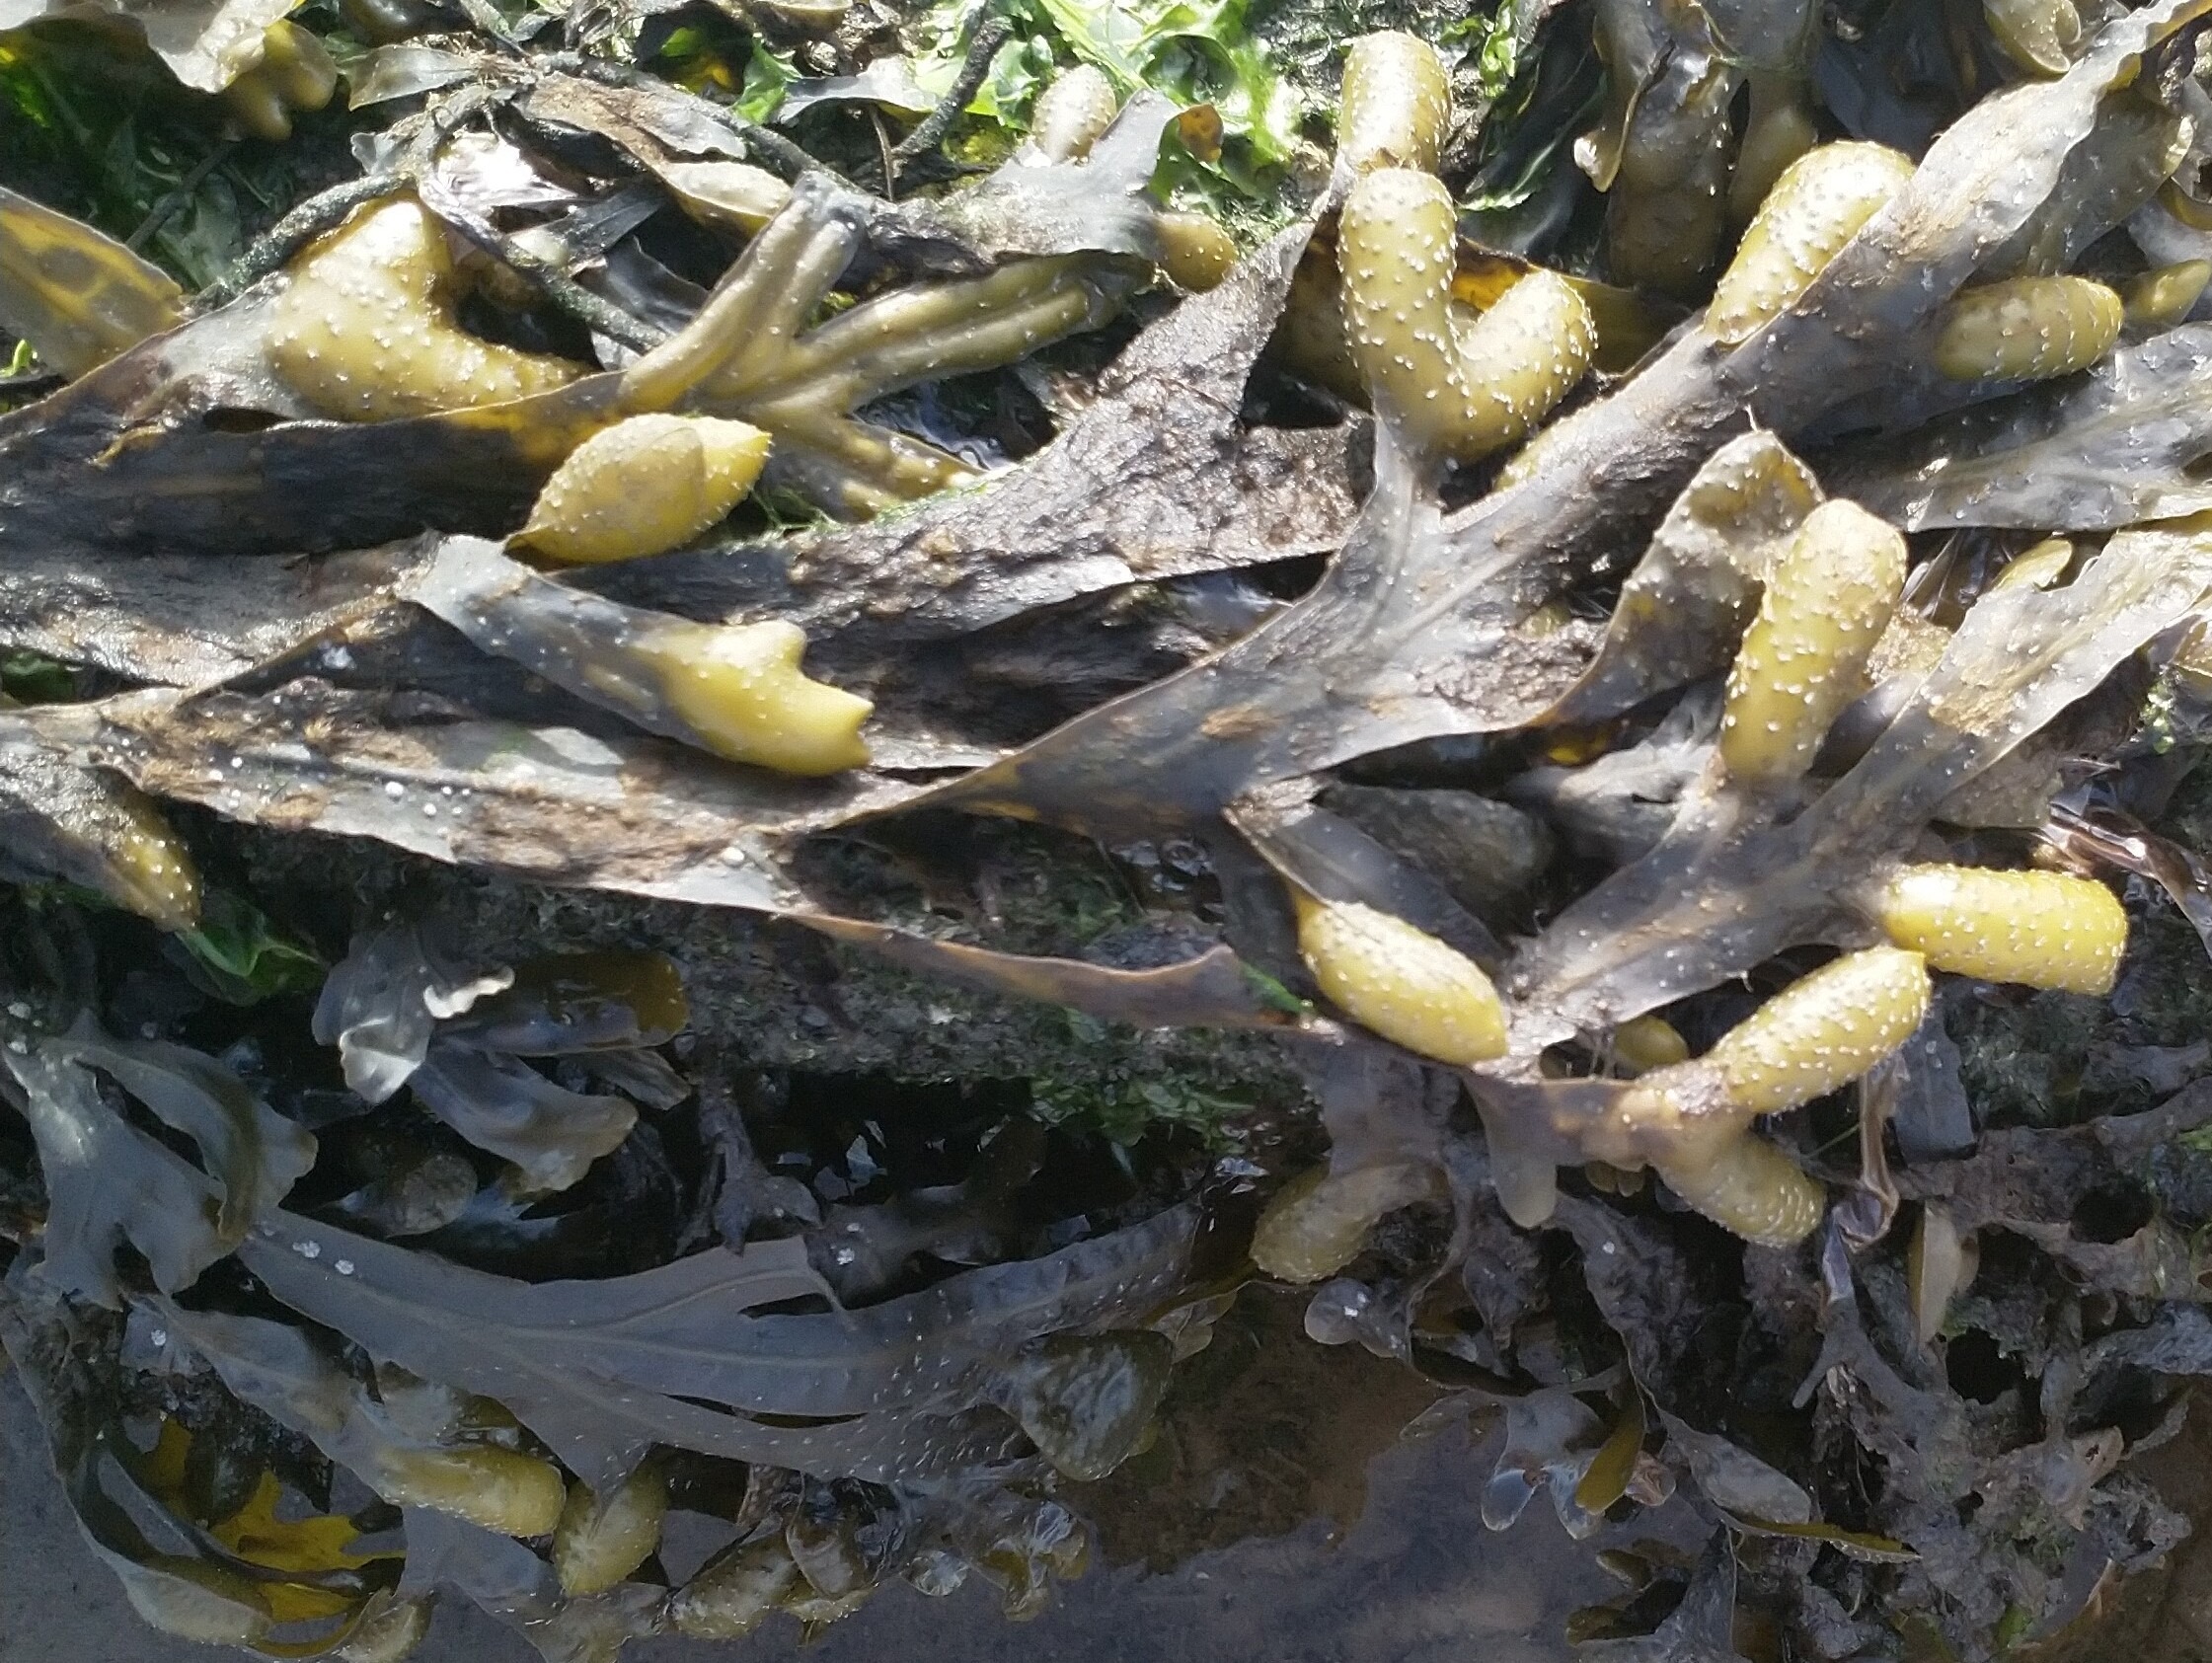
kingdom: Chromista
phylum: Ochrophyta
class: Phaeophyceae
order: Fucales
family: Fucaceae
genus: Fucus
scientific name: Fucus vesiculosus
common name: Blæretang
